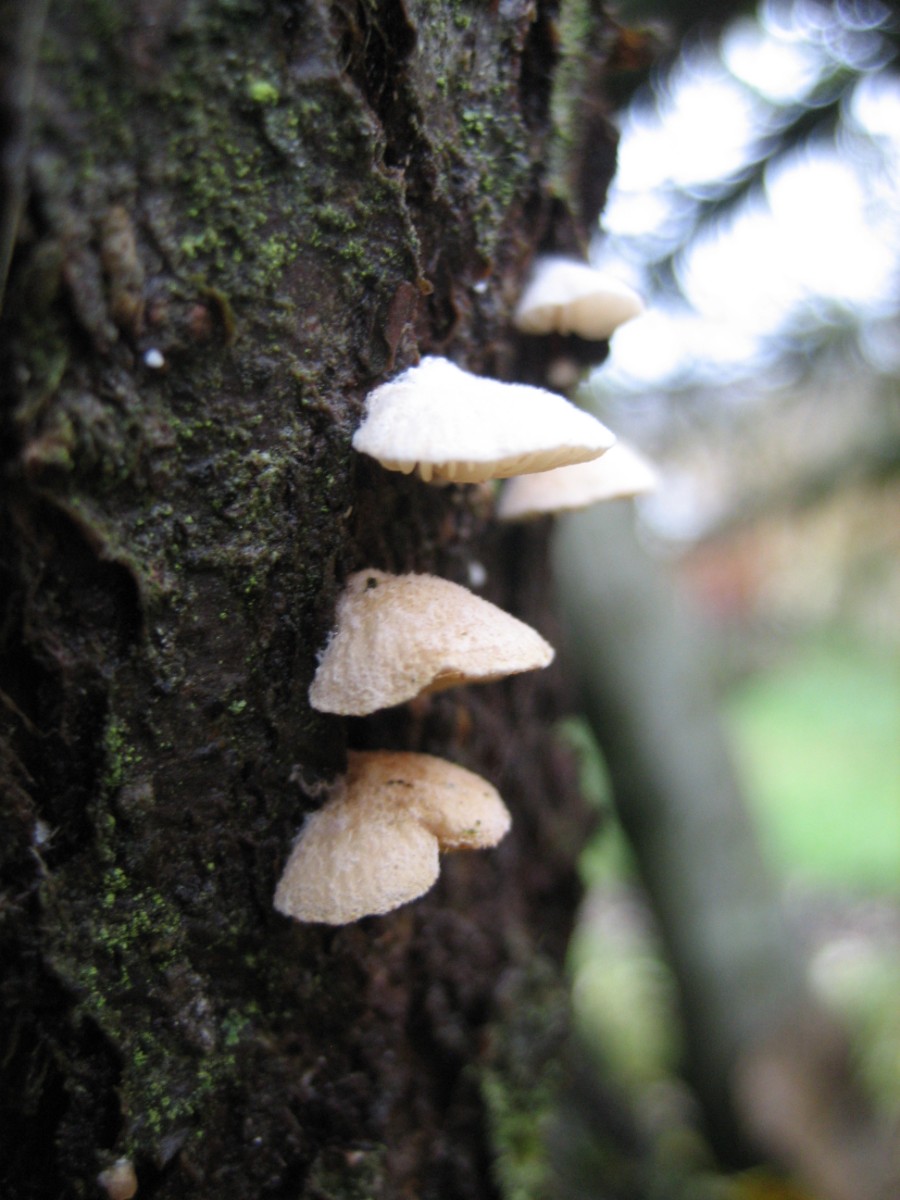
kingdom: Fungi
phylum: Basidiomycota
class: Agaricomycetes
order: Agaricales
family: Crepidotaceae
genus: Crepidotus
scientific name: Crepidotus
